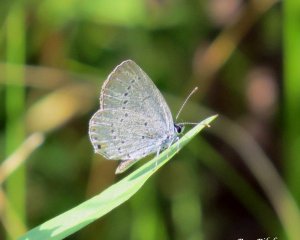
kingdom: Animalia
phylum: Arthropoda
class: Insecta
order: Lepidoptera
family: Lycaenidae
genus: Celastrina
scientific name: Celastrina
